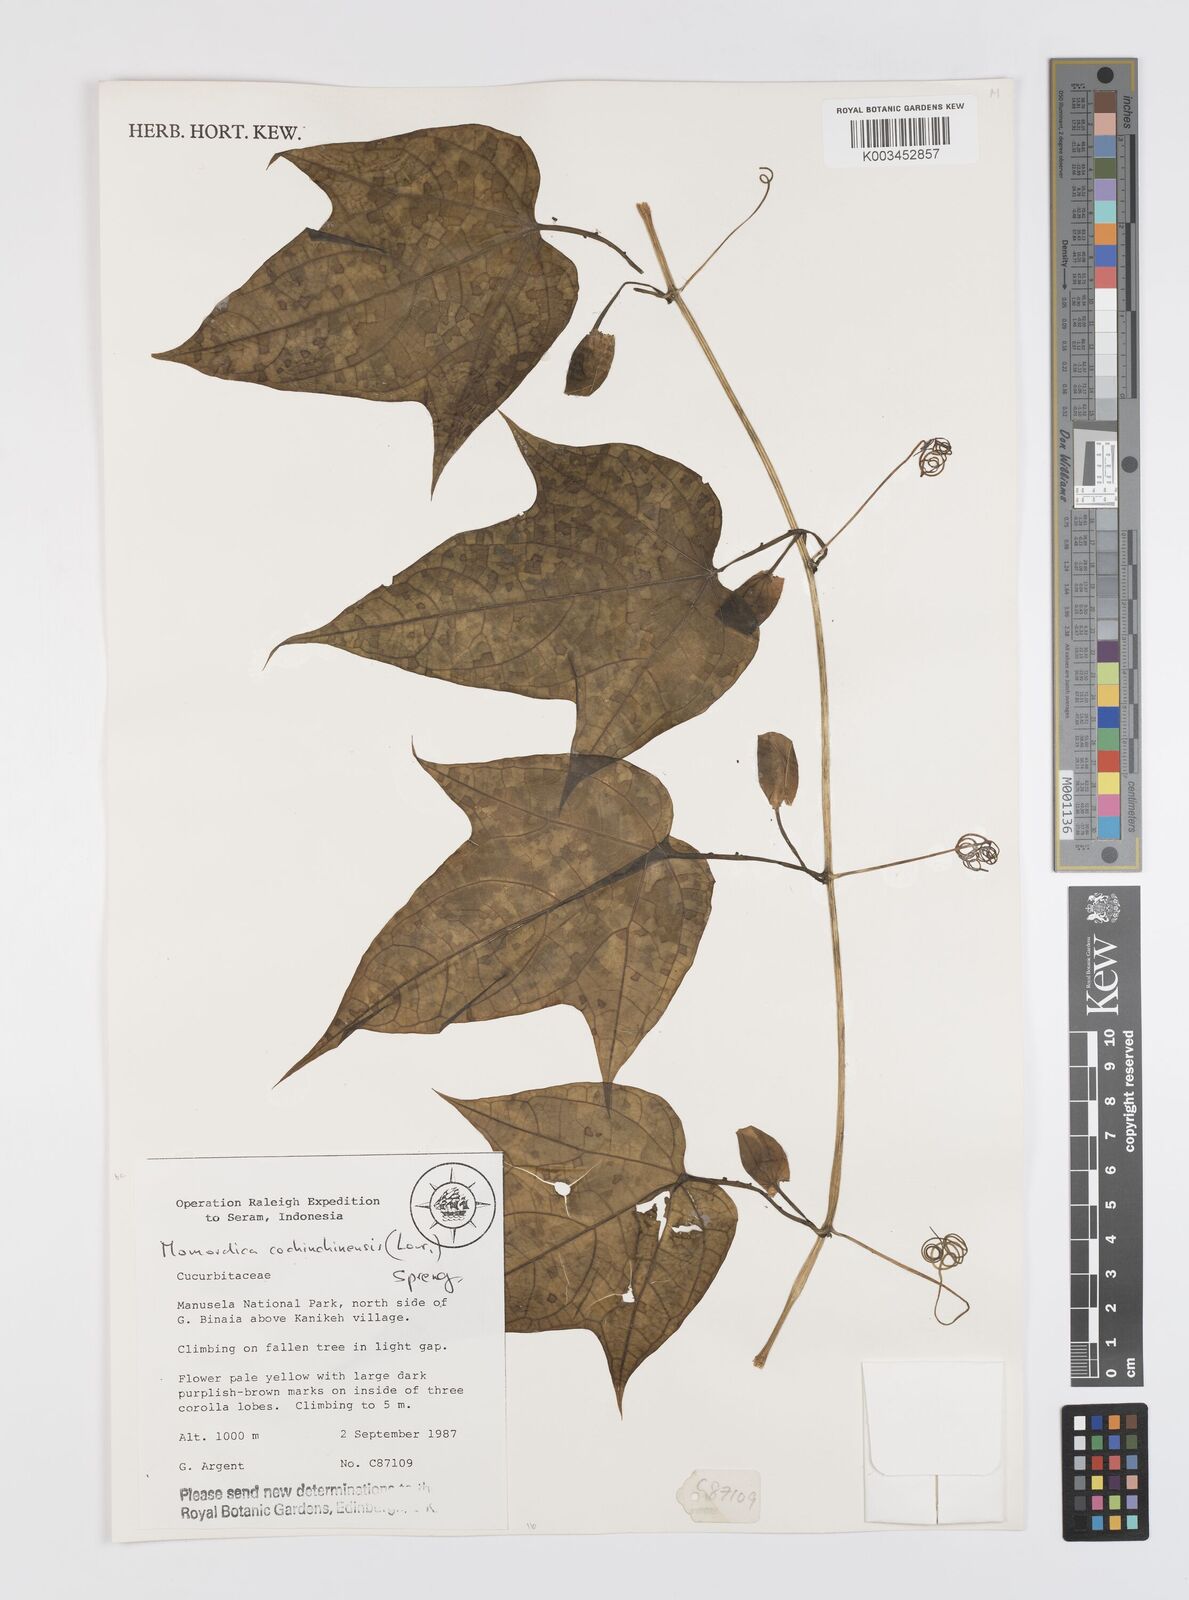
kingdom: Plantae
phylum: Tracheophyta
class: Magnoliopsida
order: Cucurbitales
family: Cucurbitaceae
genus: Momordica
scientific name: Momordica cochinchinensis
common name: Chinese bitter-cucumber
